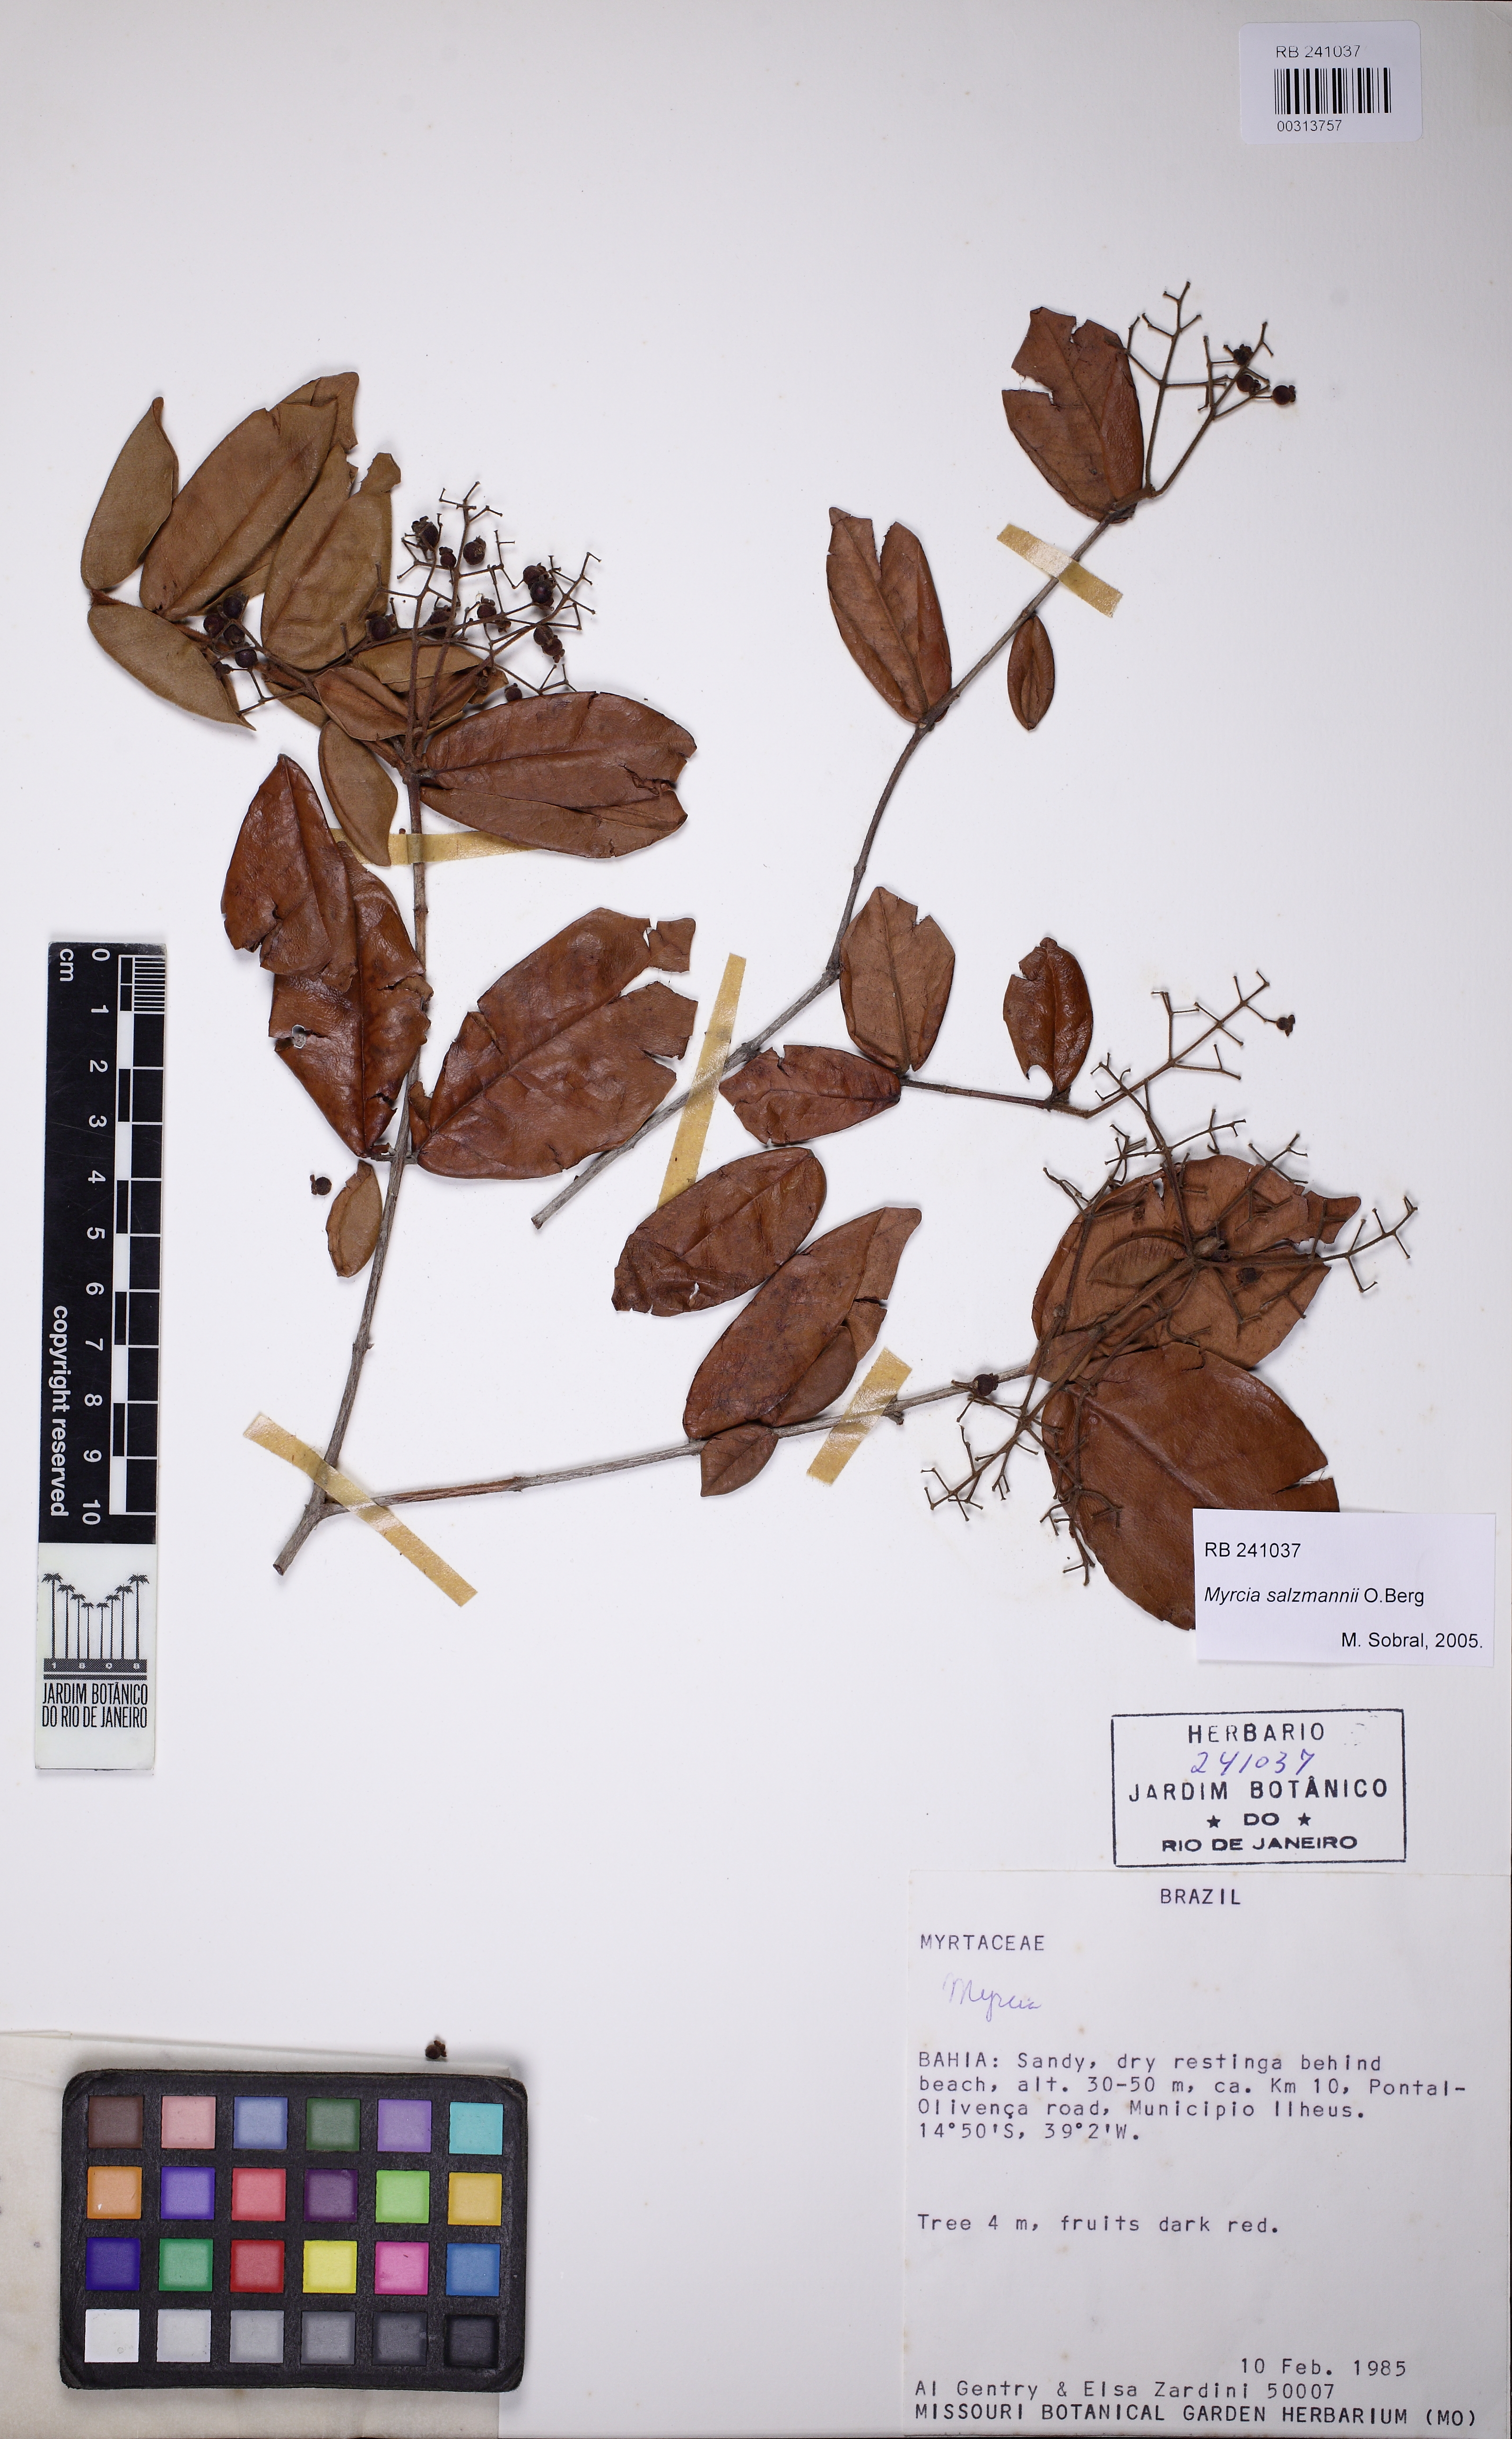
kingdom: Plantae
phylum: Tracheophyta
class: Magnoliopsida
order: Myrtales
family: Myrtaceae
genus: Myrcia
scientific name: Myrcia salzmannii
